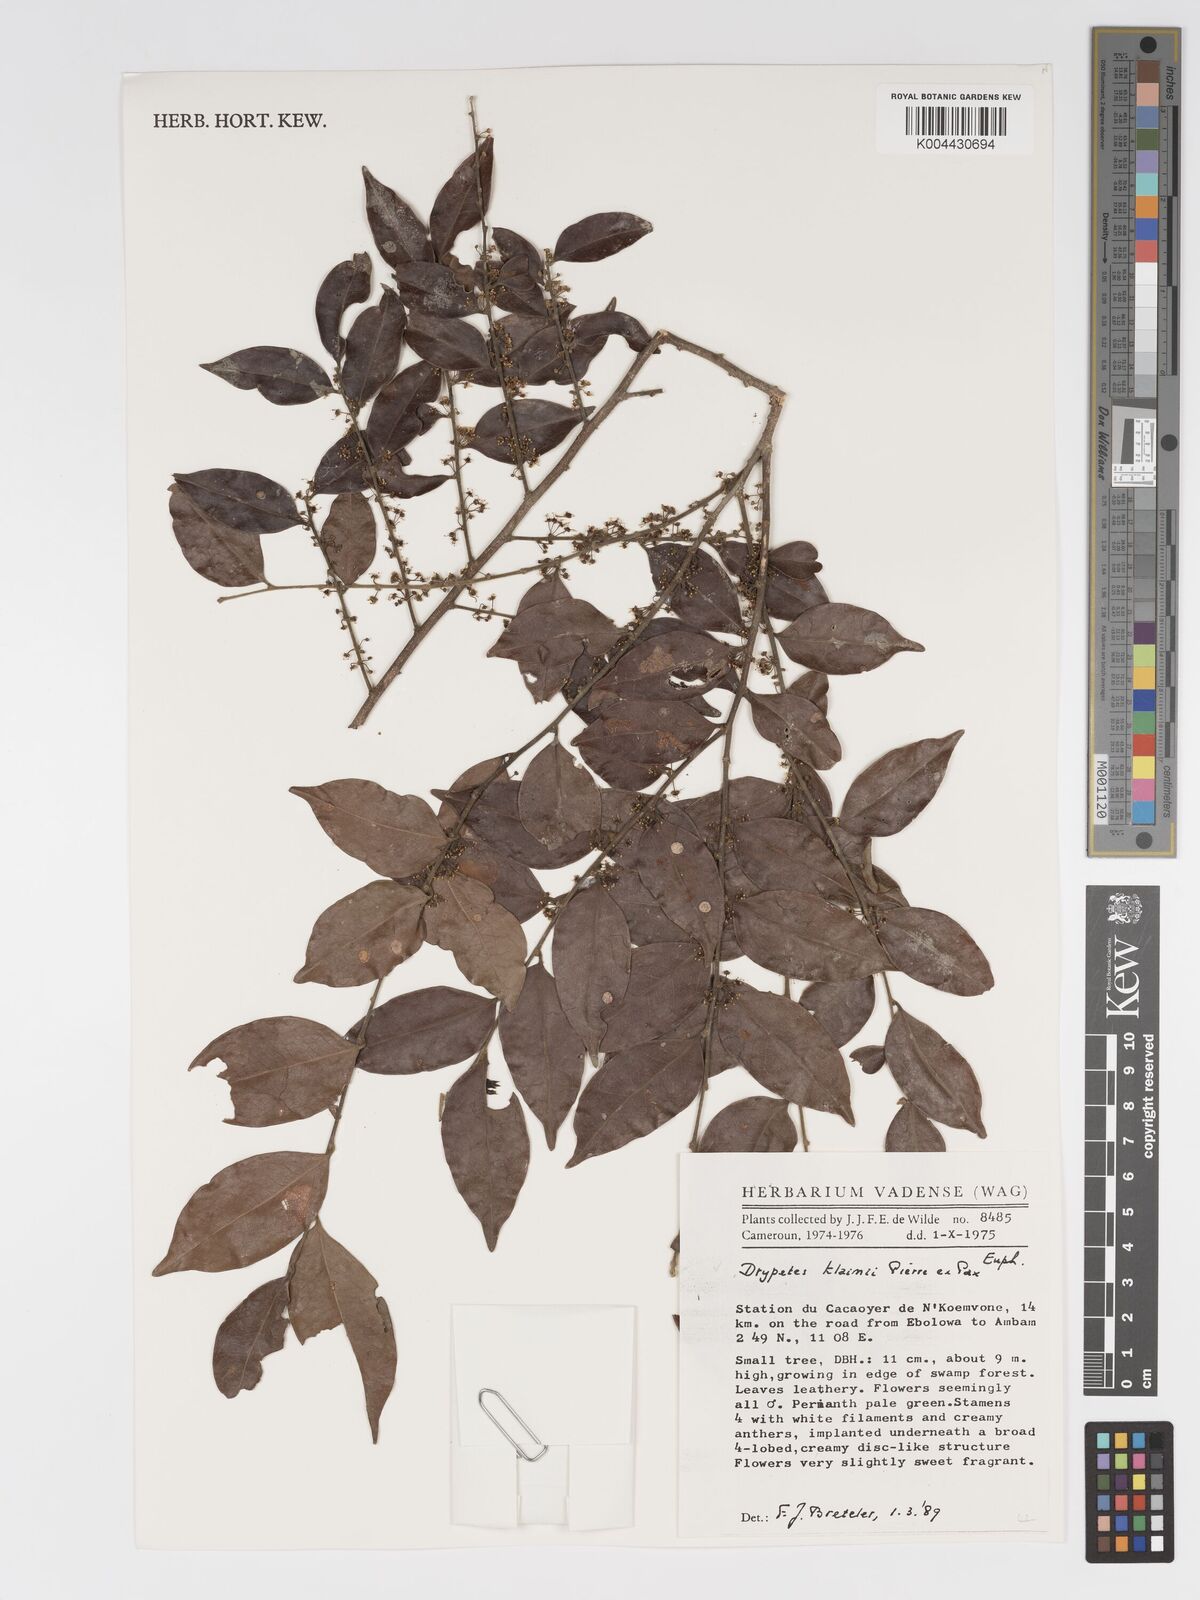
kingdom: Plantae
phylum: Tracheophyta
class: Magnoliopsida
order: Malpighiales
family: Putranjivaceae
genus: Drypetes
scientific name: Drypetes klainei
